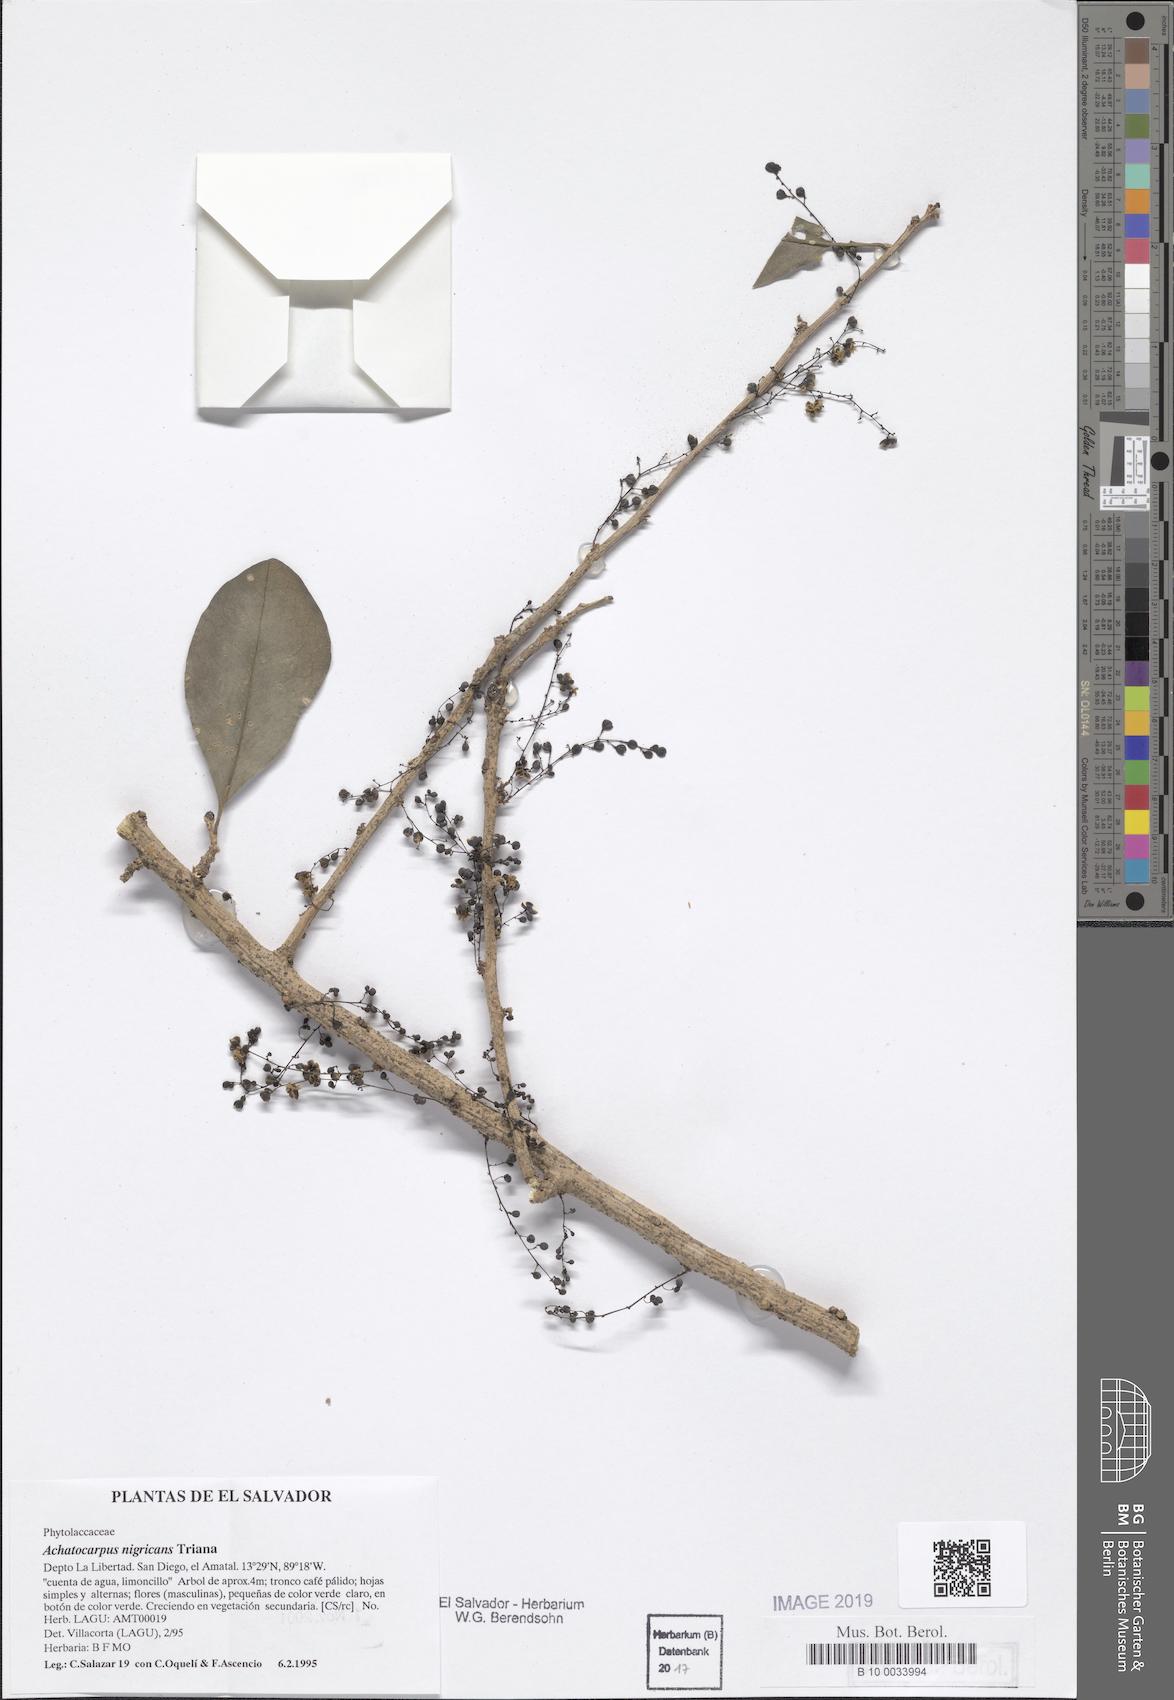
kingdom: Plantae
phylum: Tracheophyta
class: Magnoliopsida
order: Caryophyllales
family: Achatocarpaceae
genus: Achatocarpus
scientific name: Achatocarpus nigricans
